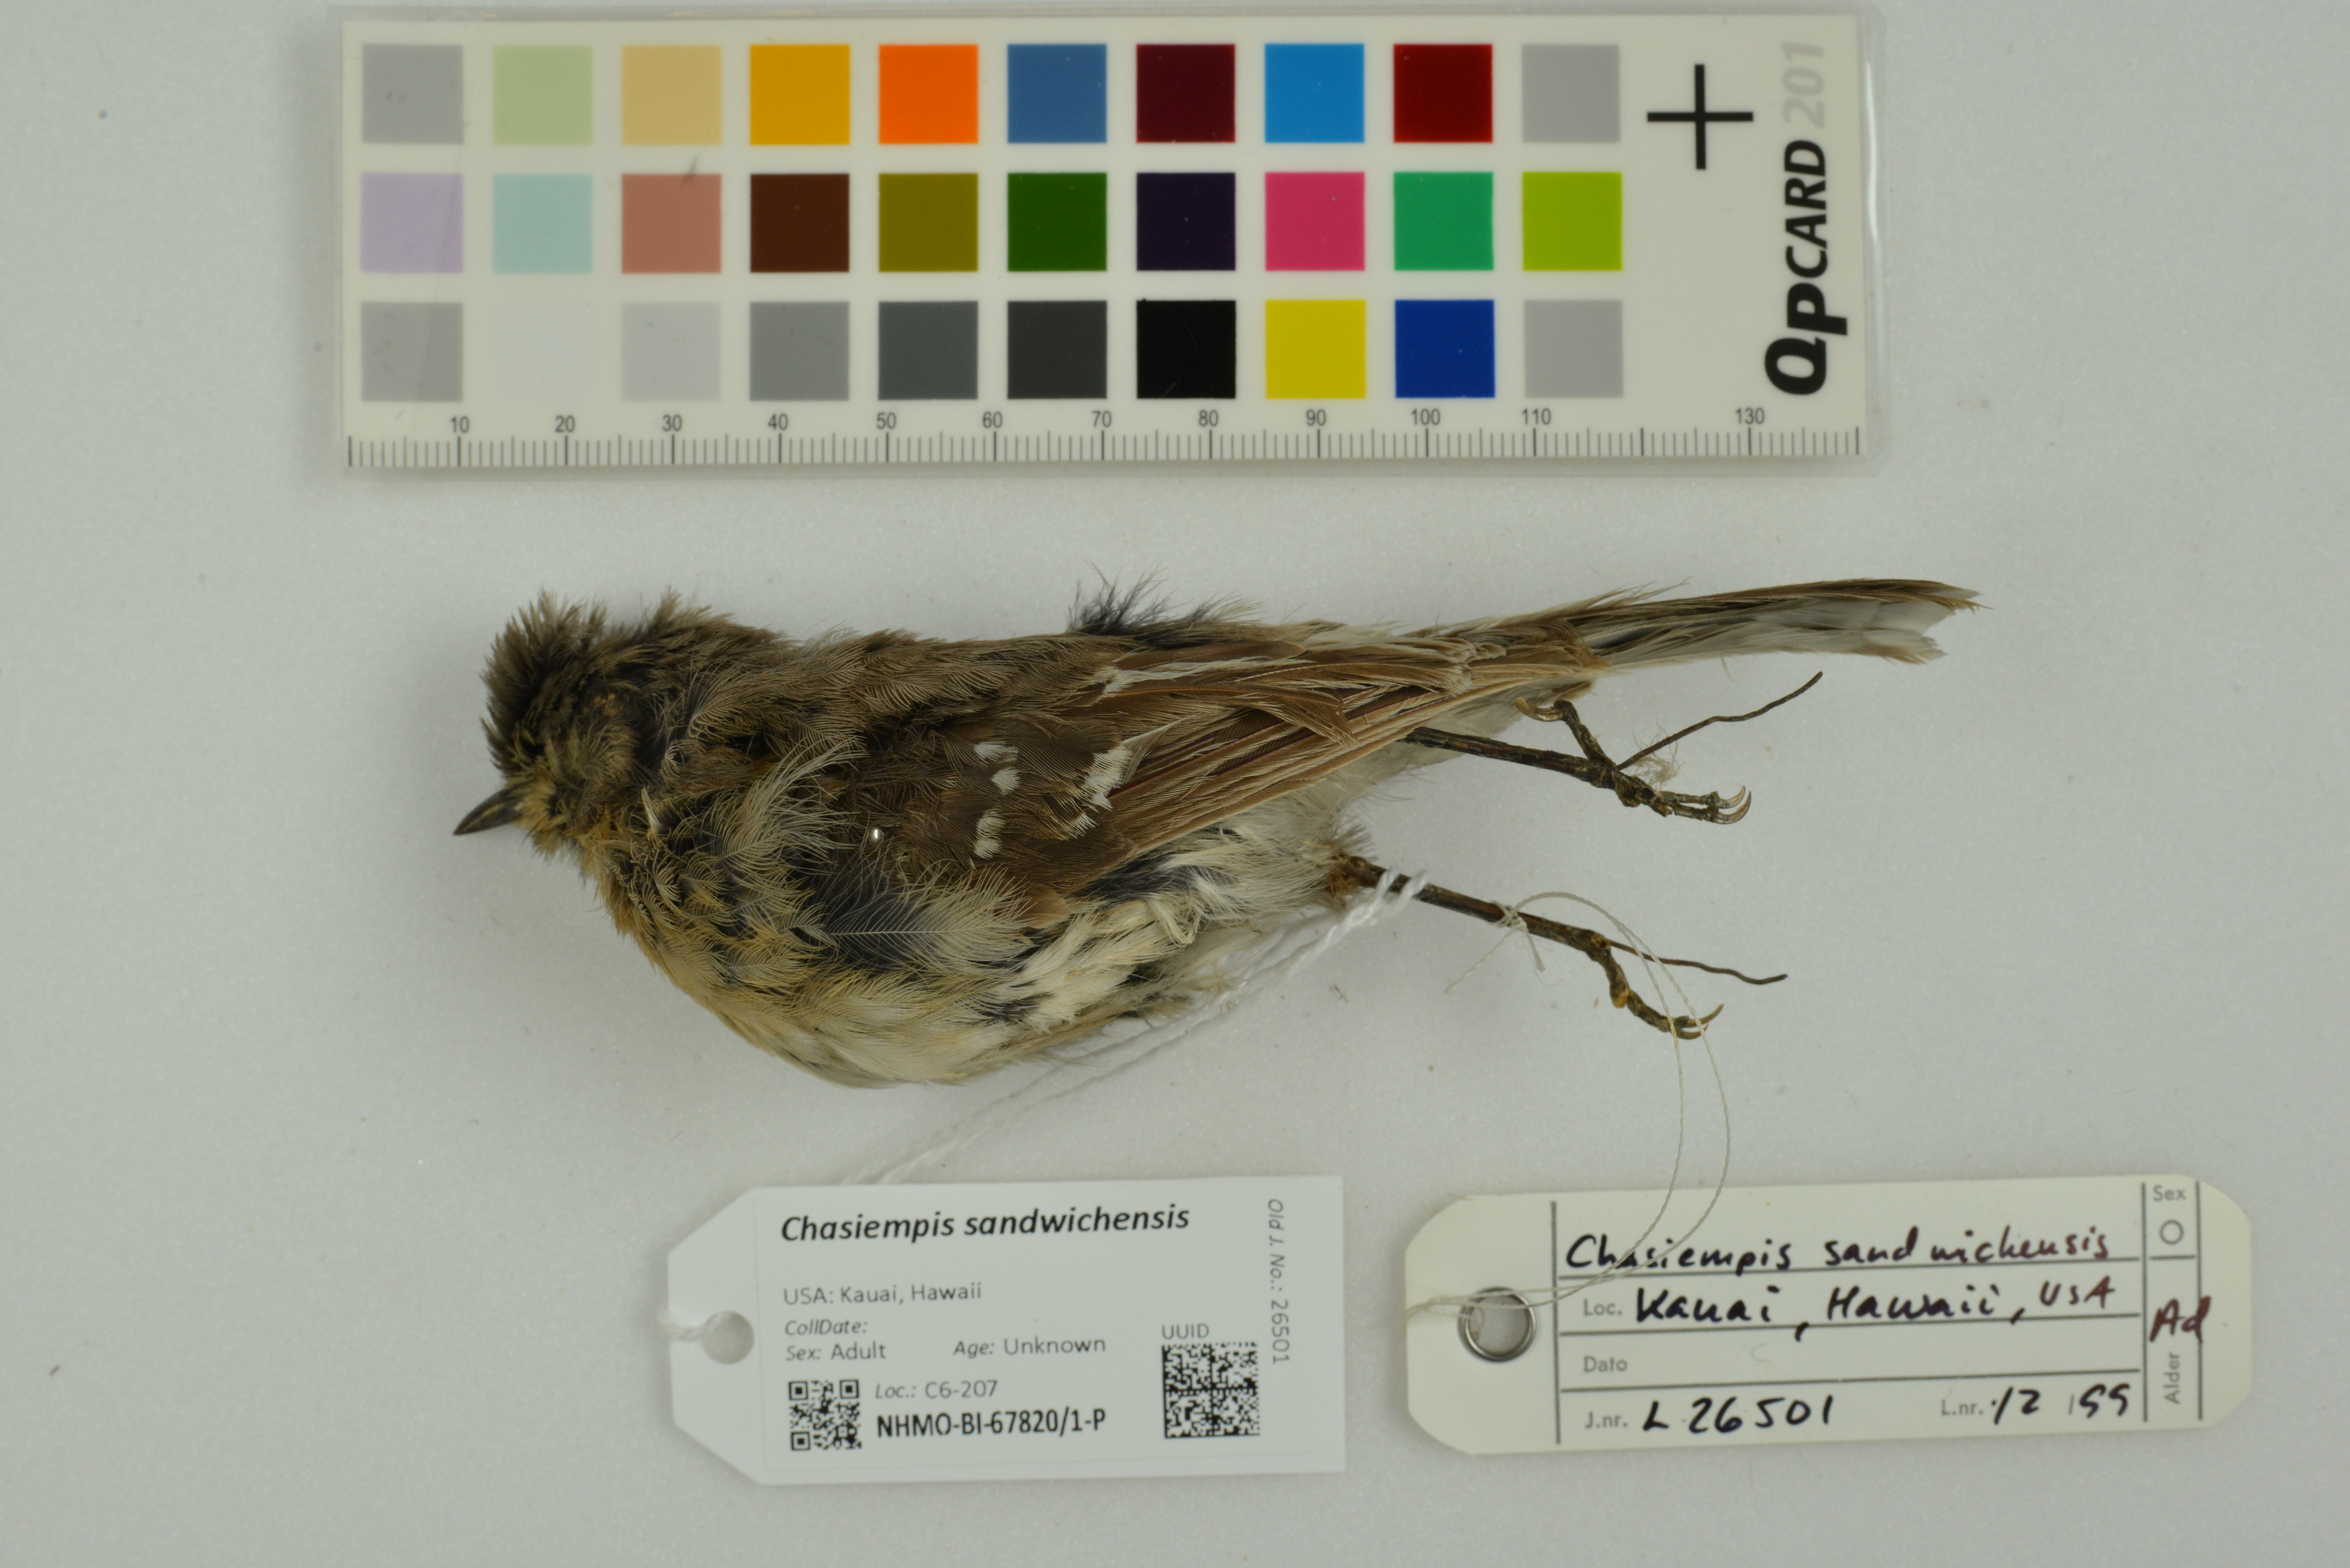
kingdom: Animalia
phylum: Chordata
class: Aves
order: Passeriformes
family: Monarchidae
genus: Chasiempis
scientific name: Chasiempis sandwichensis
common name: Hawaii elepaio
